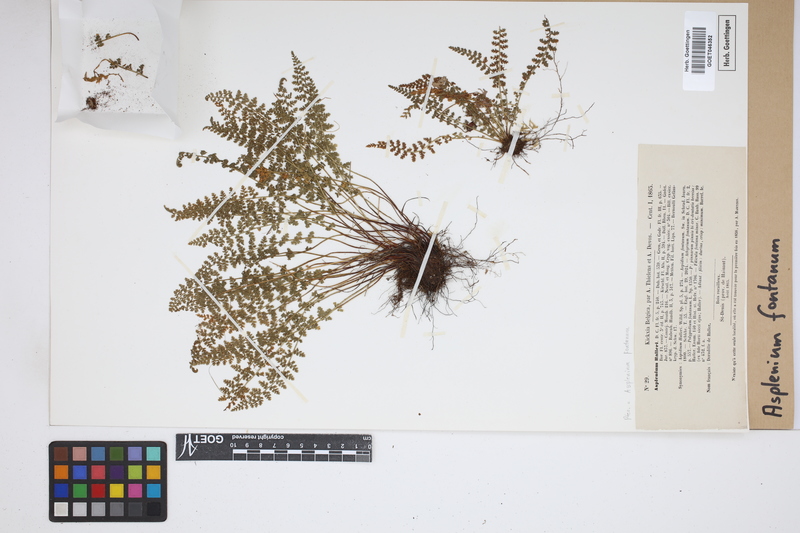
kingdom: Plantae
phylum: Tracheophyta
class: Polypodiopsida
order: Polypodiales
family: Aspleniaceae
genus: Asplenium
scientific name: Asplenium fontanum
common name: Fountain spleenwort
